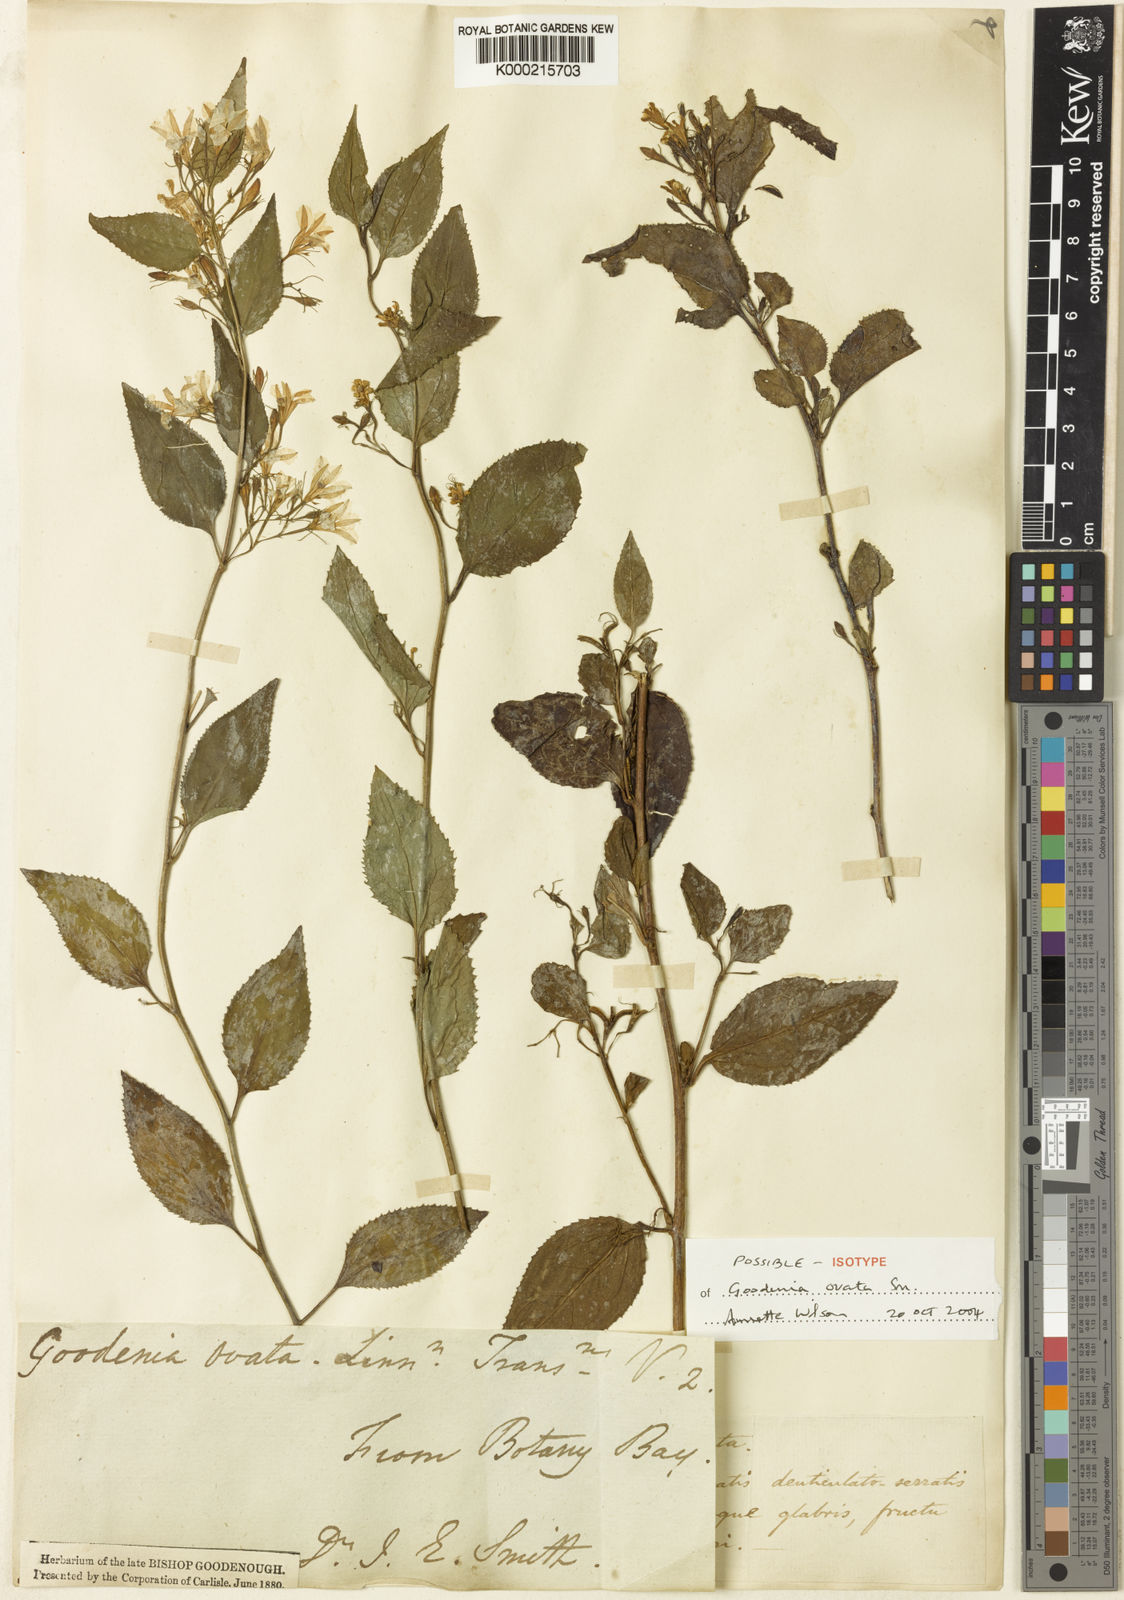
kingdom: Plantae
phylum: Tracheophyta
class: Magnoliopsida
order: Asterales
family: Goodeniaceae
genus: Goodenia
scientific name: Goodenia ovata
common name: Hop goodenia
